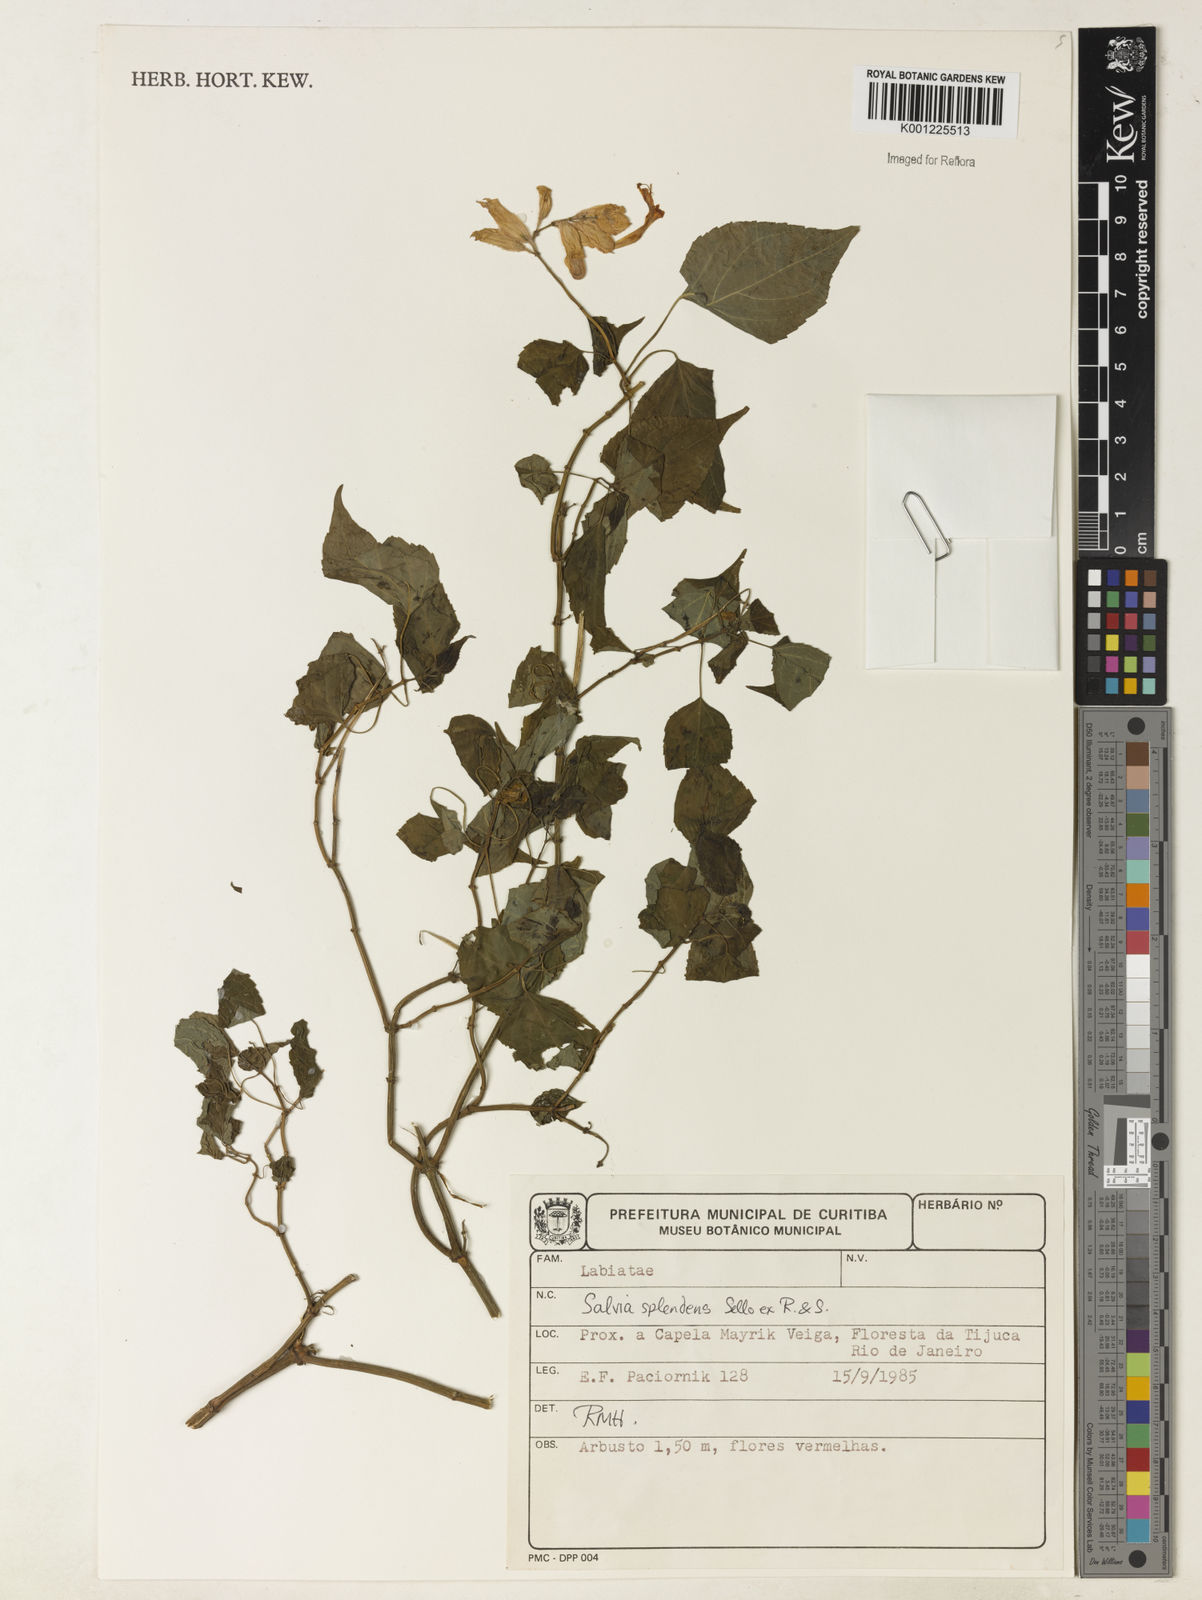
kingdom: Plantae
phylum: Tracheophyta
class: Magnoliopsida
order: Lamiales
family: Lamiaceae
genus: Salvia
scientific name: Salvia
